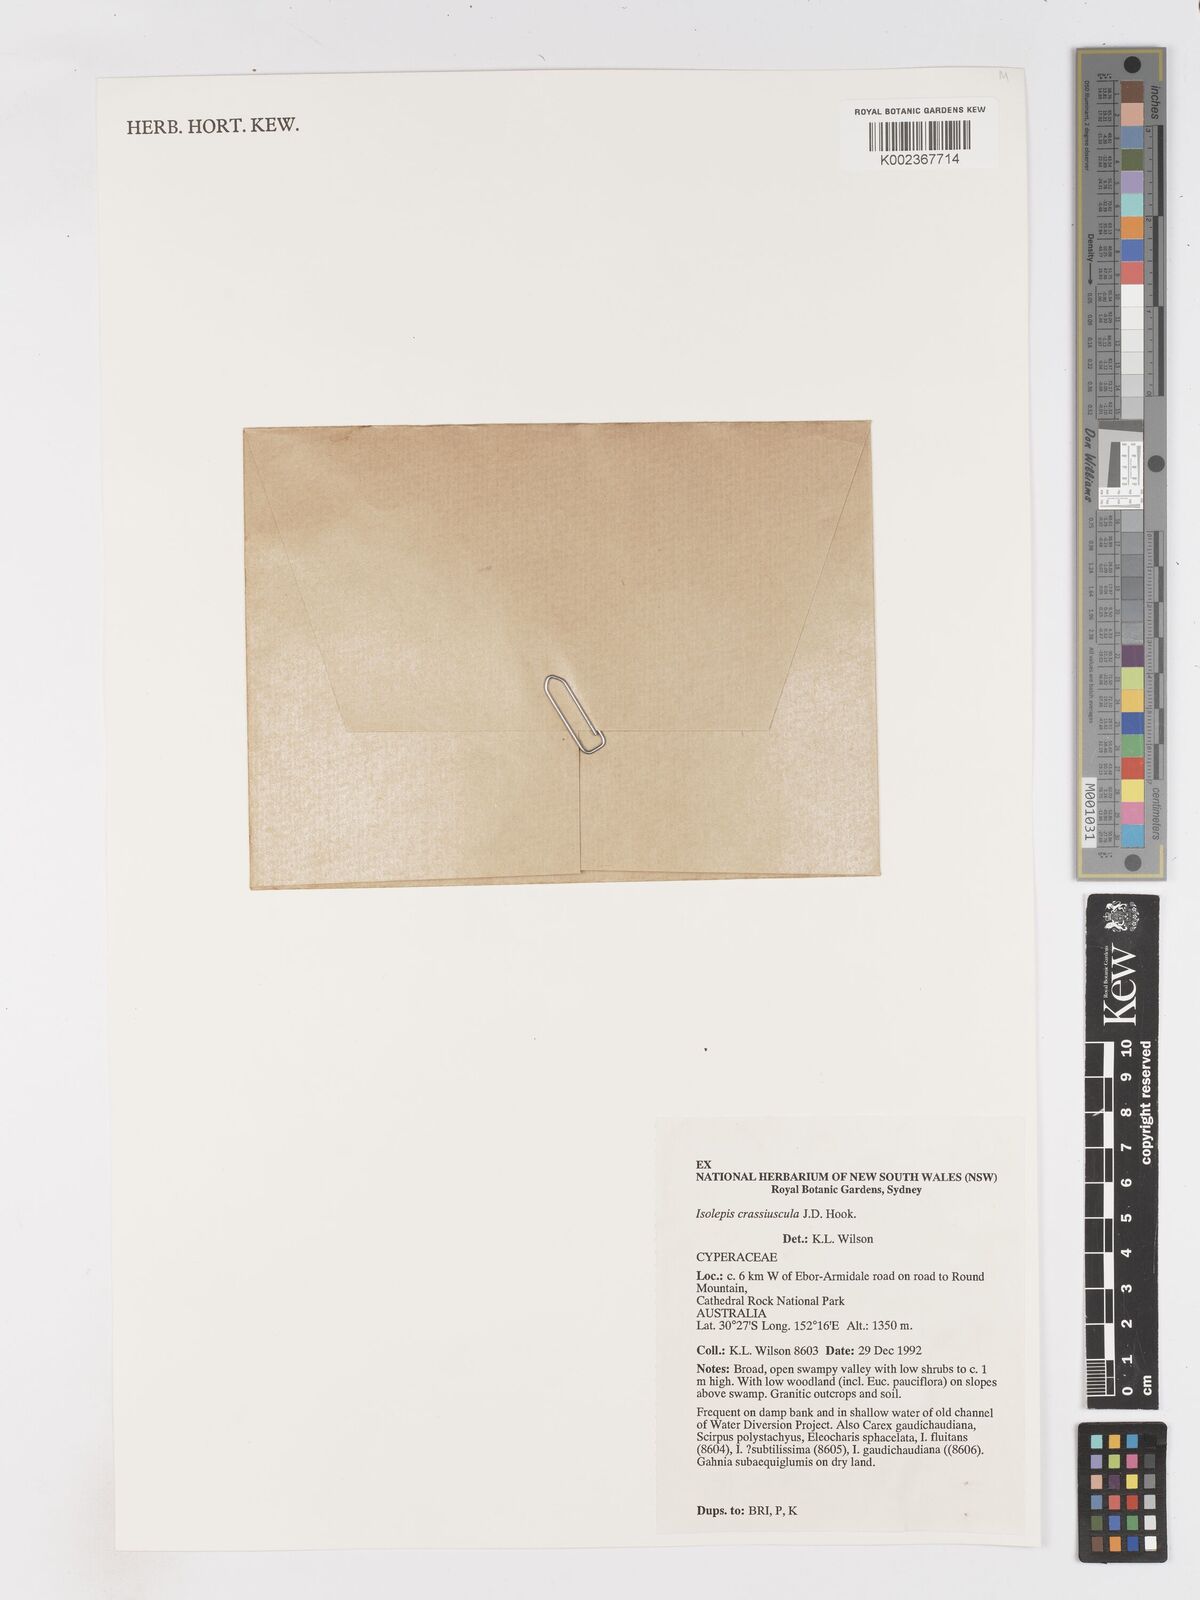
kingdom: Plantae
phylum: Tracheophyta
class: Liliopsida
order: Poales
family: Cyperaceae
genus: Isolepis
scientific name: Isolepis crassiuscula
